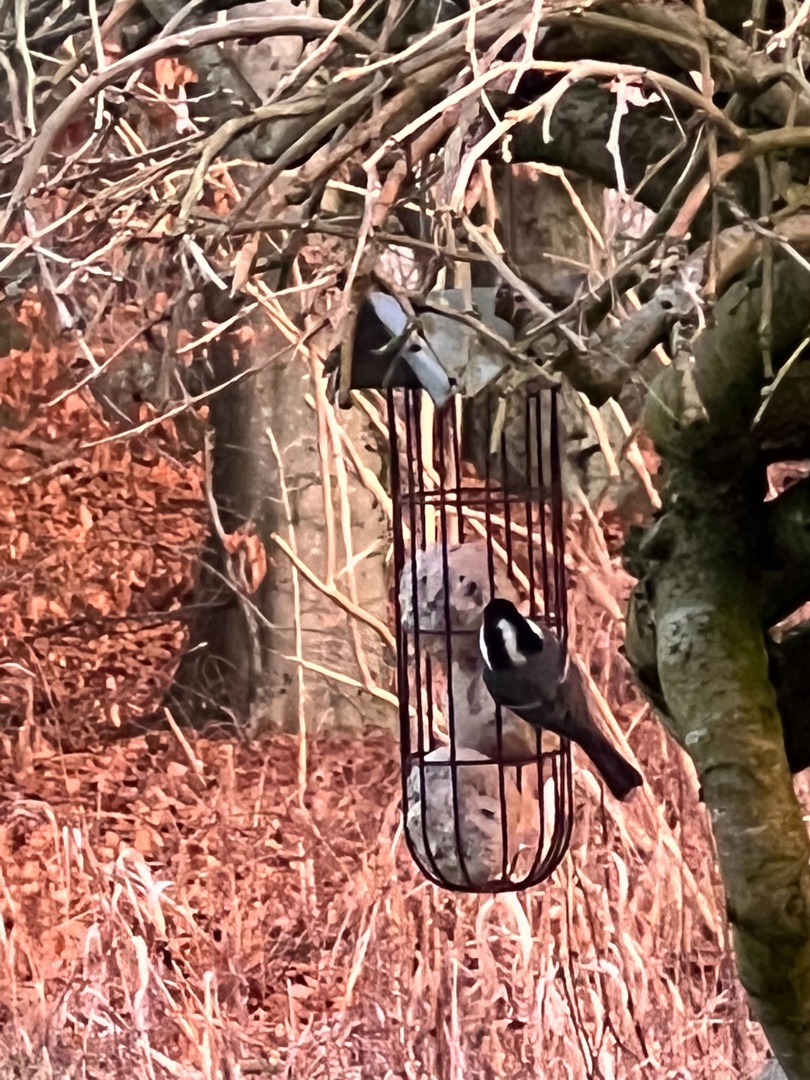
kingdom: Animalia
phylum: Chordata
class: Aves
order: Passeriformes
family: Paridae
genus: Periparus
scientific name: Periparus ater
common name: Sortmejse
